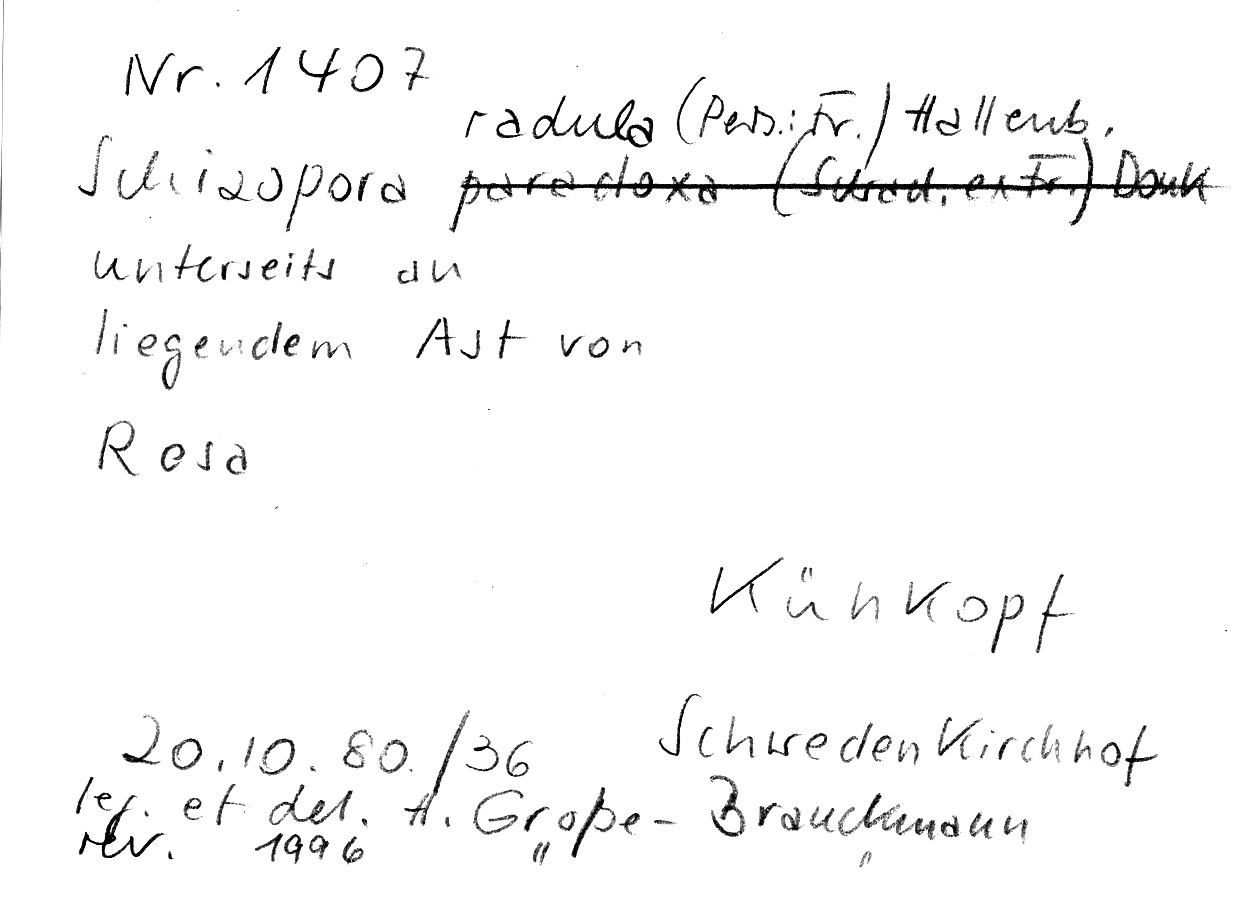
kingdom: Fungi
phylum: Basidiomycota
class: Agaricomycetes
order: Hymenochaetales
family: Schizoporaceae
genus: Xylodon
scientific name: Xylodon raduloides
